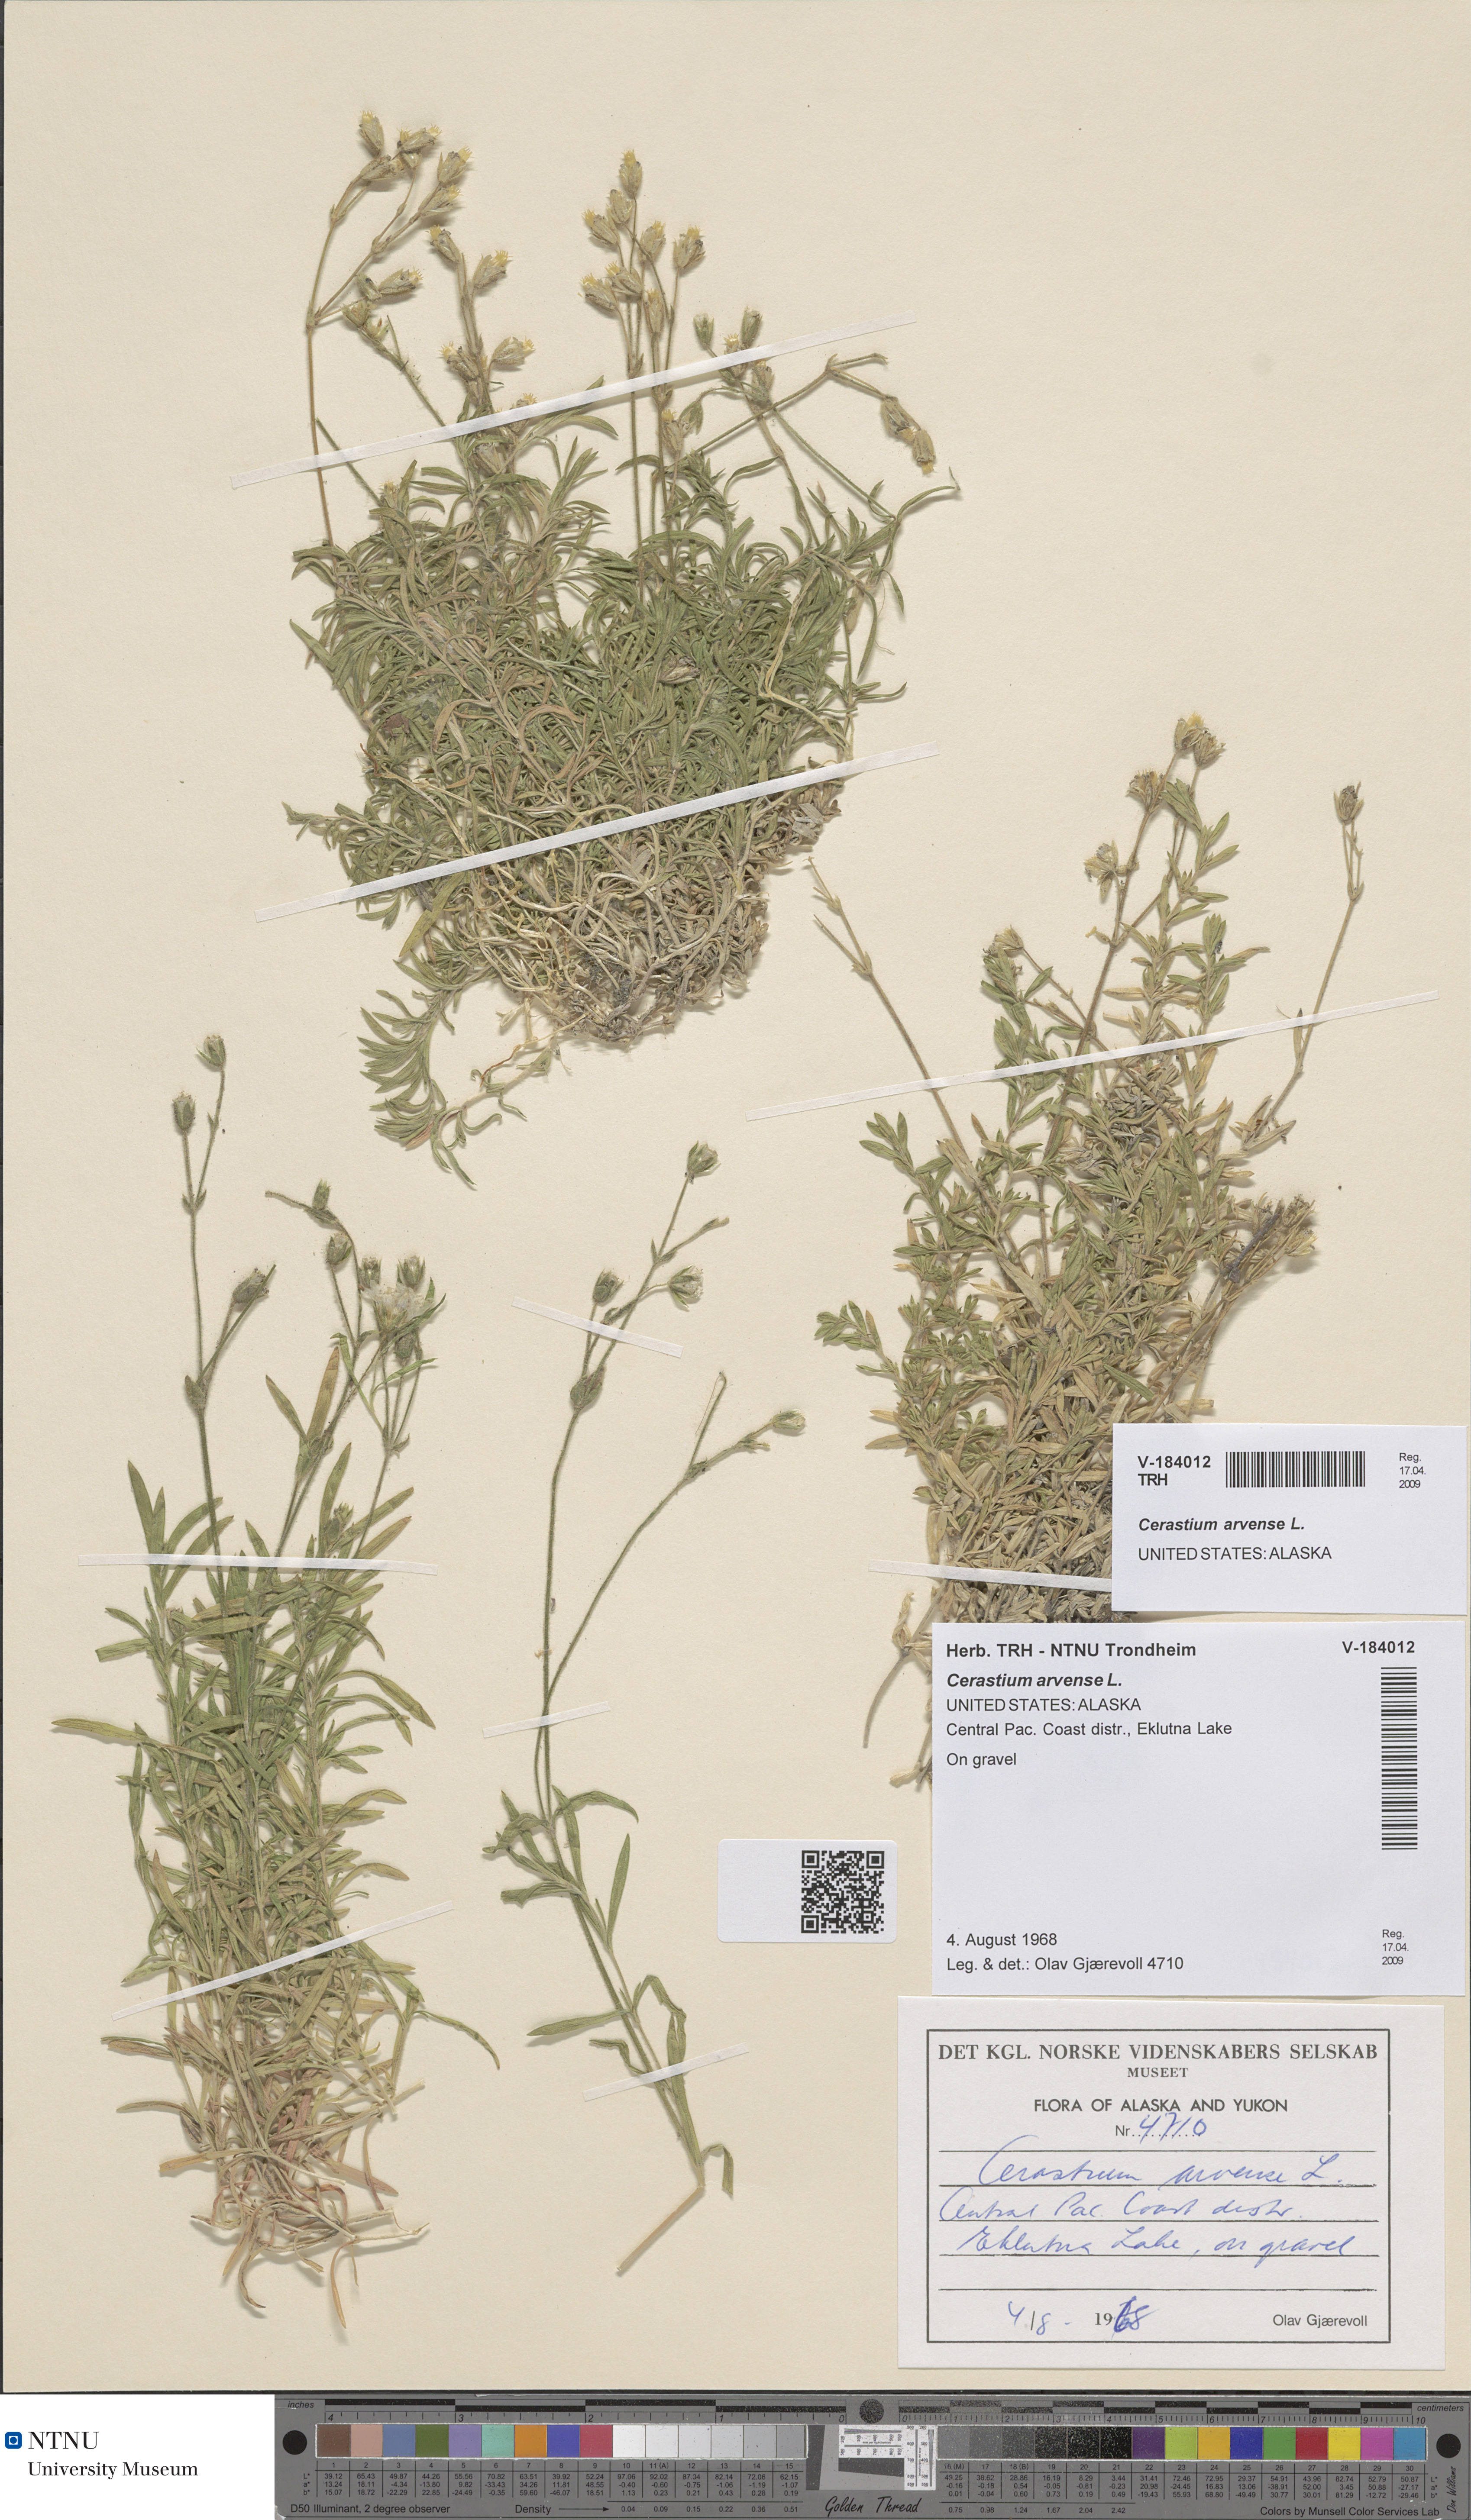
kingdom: Plantae
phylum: Tracheophyta
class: Magnoliopsida
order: Caryophyllales
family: Caryophyllaceae
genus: Cerastium
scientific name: Cerastium arvense
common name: Field mouse-ear
